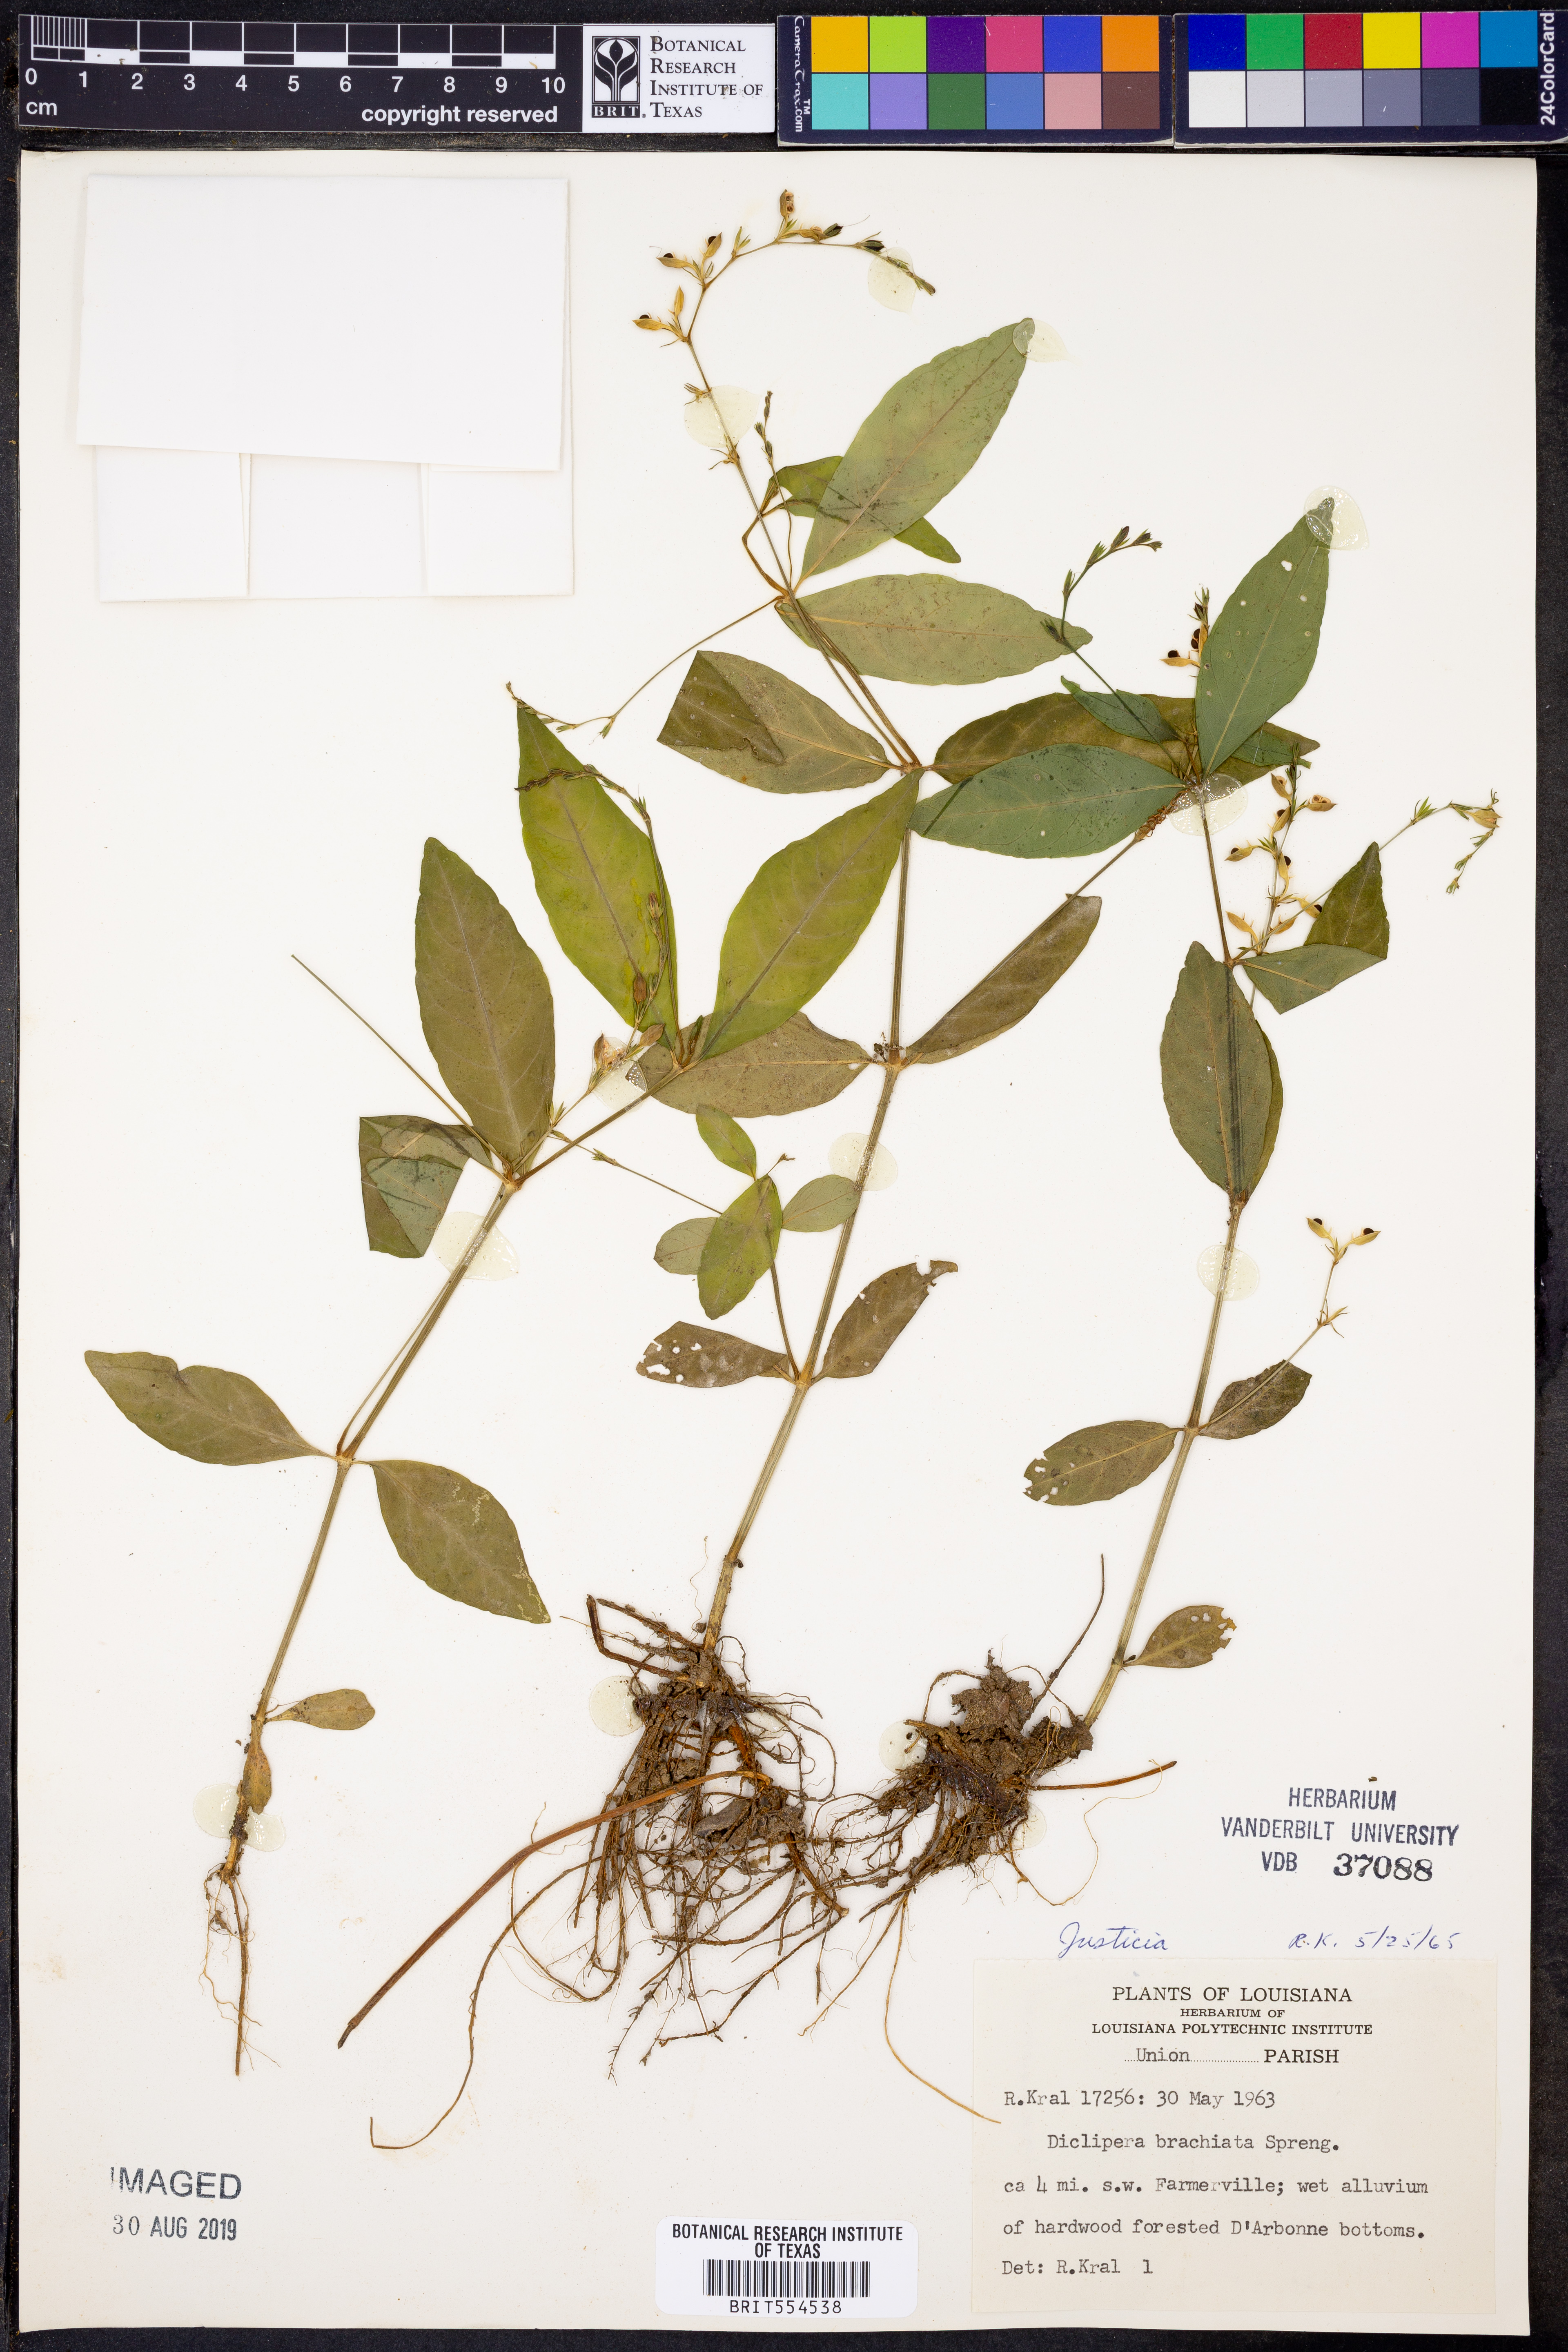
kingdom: Plantae
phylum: Tracheophyta
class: Magnoliopsida
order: Lamiales
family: Acanthaceae
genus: Yeatesia
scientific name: Yeatesia viridiflora
